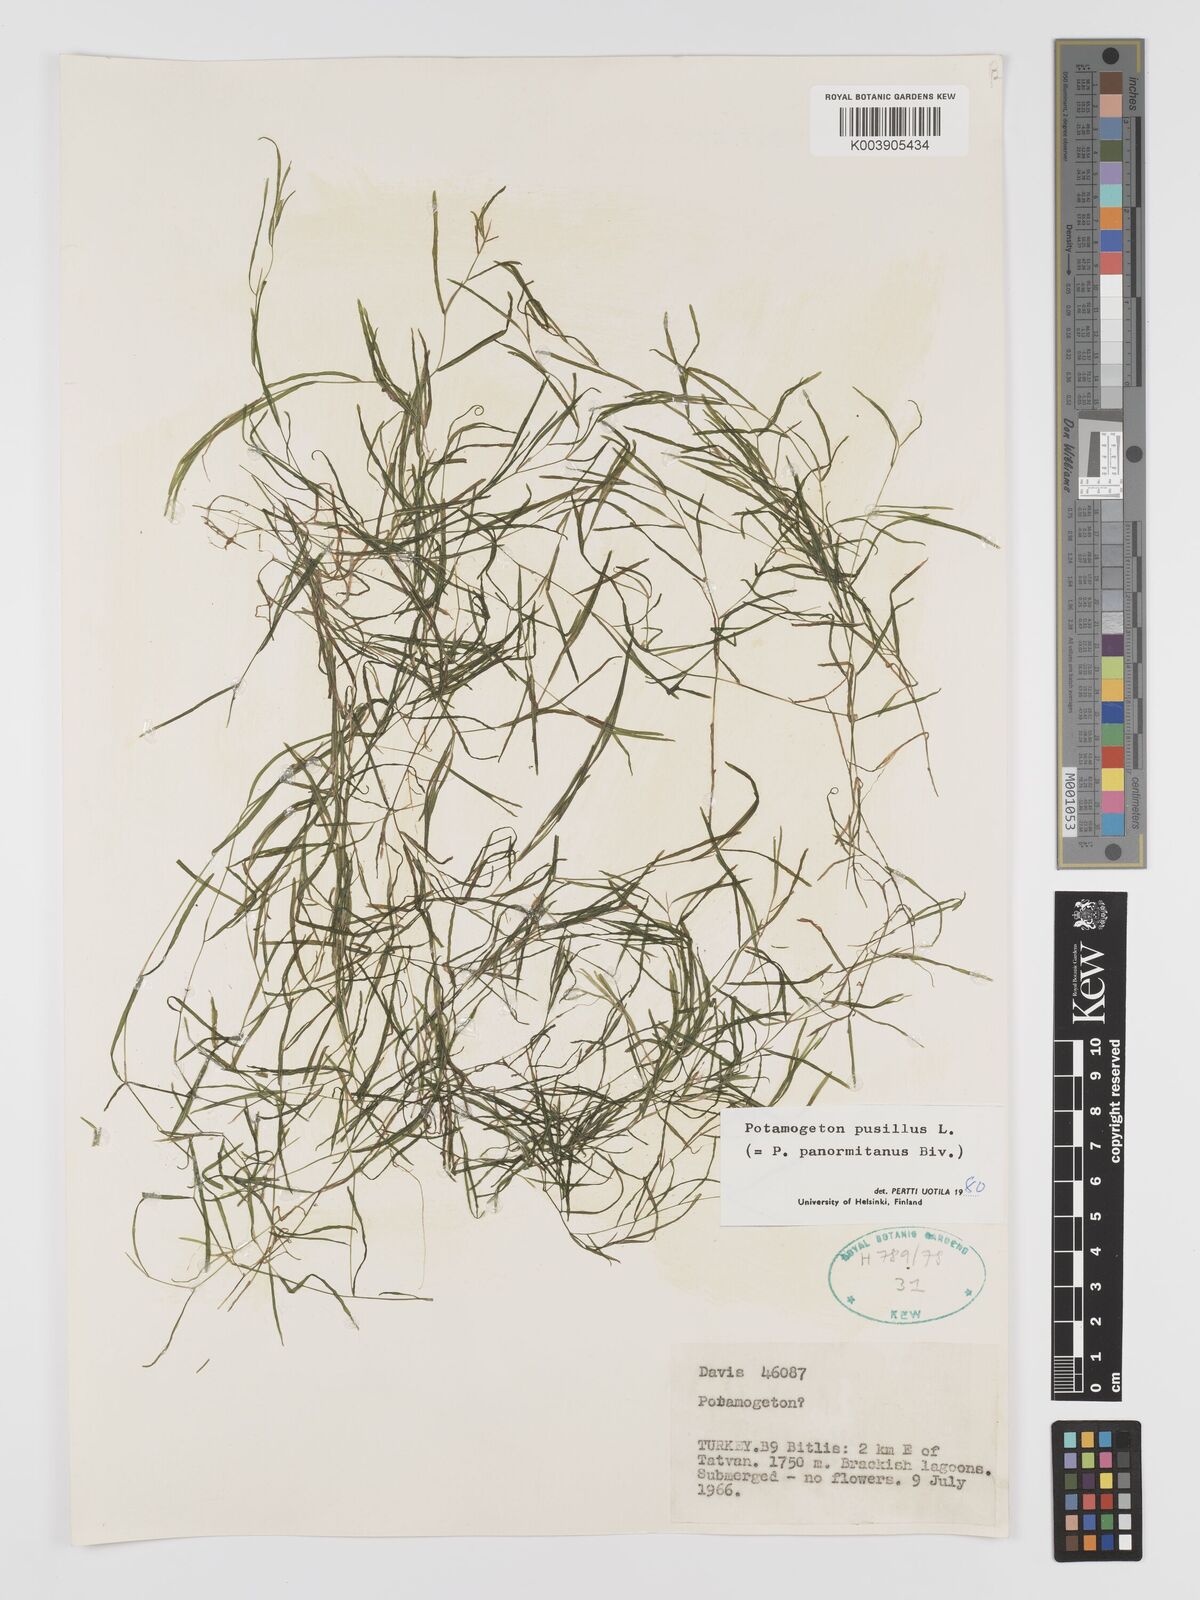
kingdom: Plantae
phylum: Tracheophyta
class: Liliopsida
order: Alismatales
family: Potamogetonaceae
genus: Potamogeton
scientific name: Potamogeton pusillus
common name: Lesser pondweed
